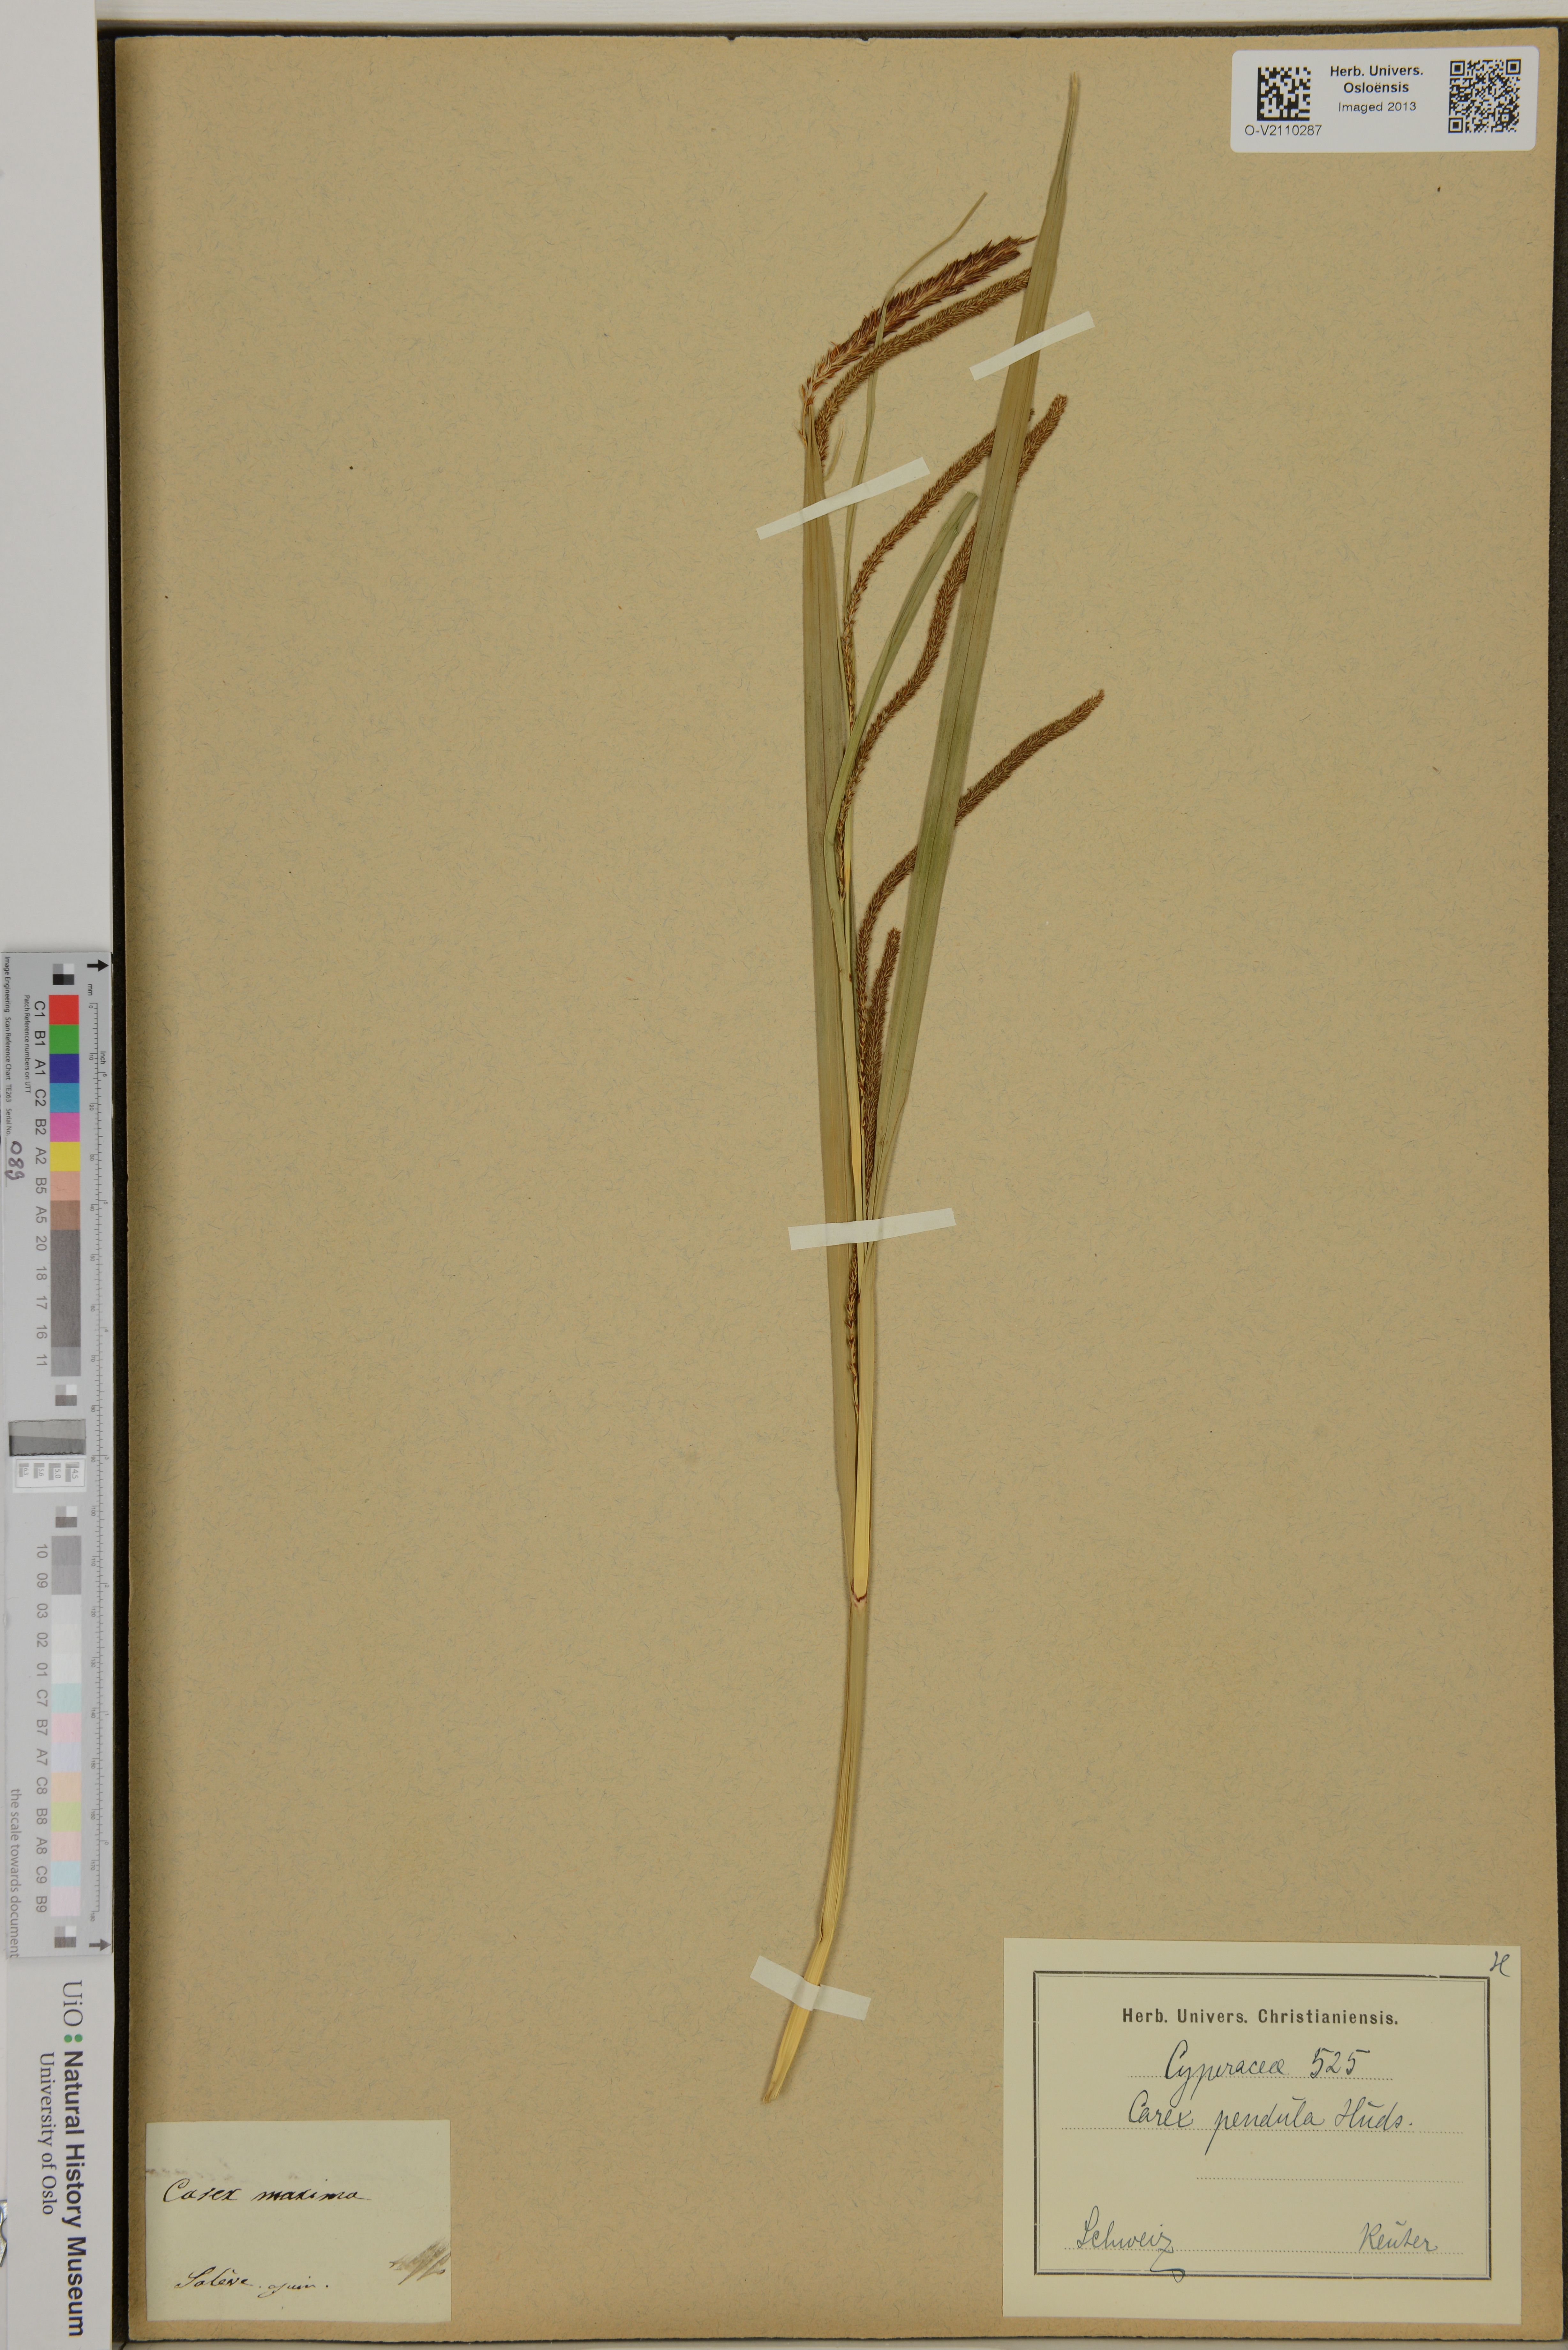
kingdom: Plantae
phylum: Tracheophyta
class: Liliopsida
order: Poales
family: Cyperaceae
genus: Carex
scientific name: Carex pendula
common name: Pendulous sedge
